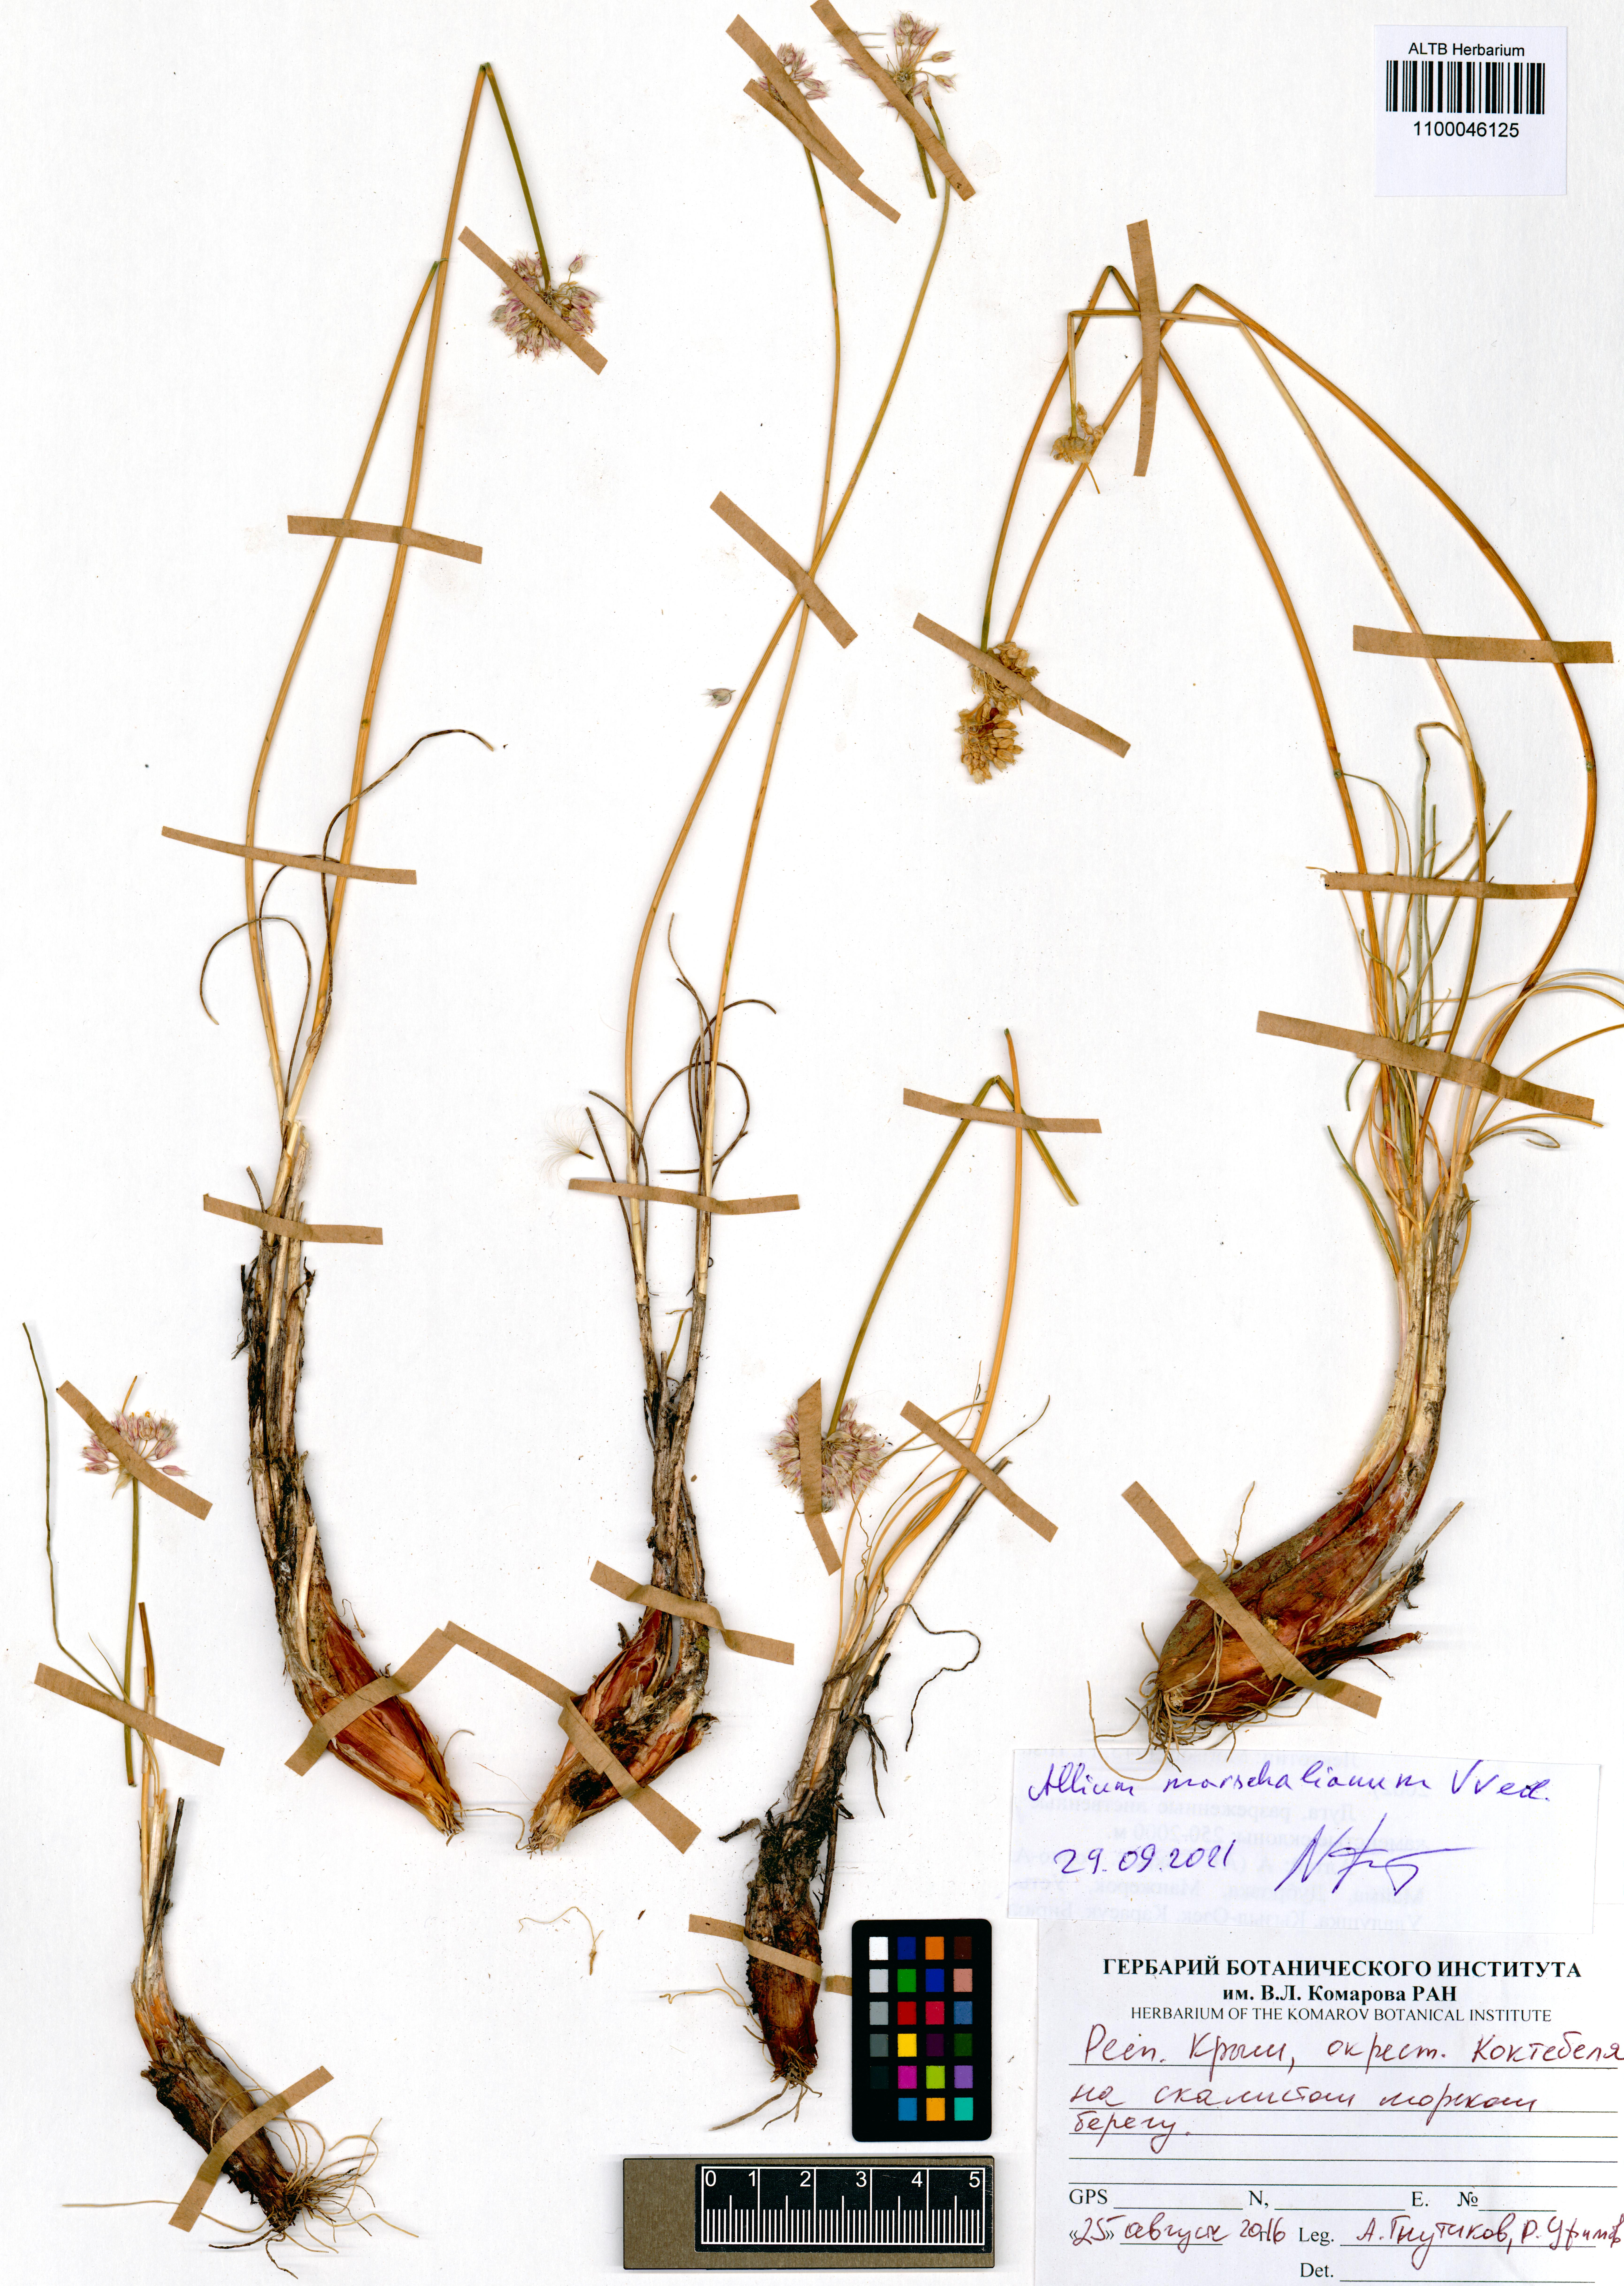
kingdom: Plantae
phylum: Tracheophyta
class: Liliopsida
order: Asparagales
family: Amaryllidaceae
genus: Allium
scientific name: Allium marschallianum
